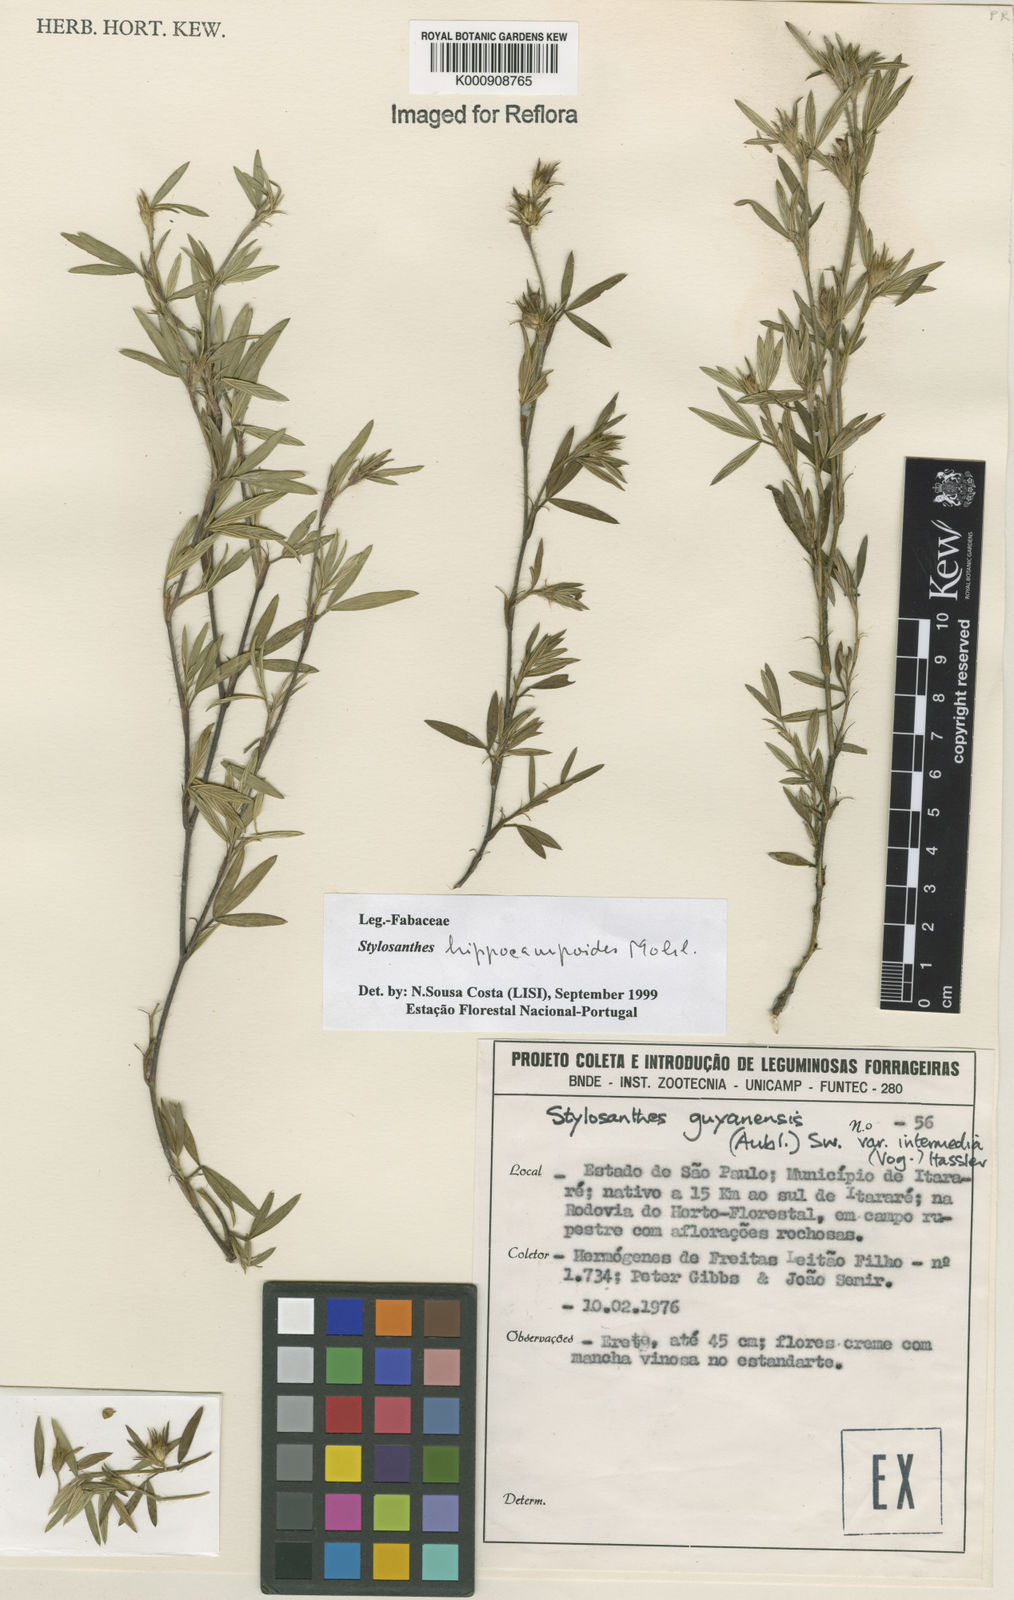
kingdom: Plantae
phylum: Tracheophyta
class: Magnoliopsida
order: Fabales
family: Fabaceae
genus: Stylosanthes
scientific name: Stylosanthes hippocampoides
